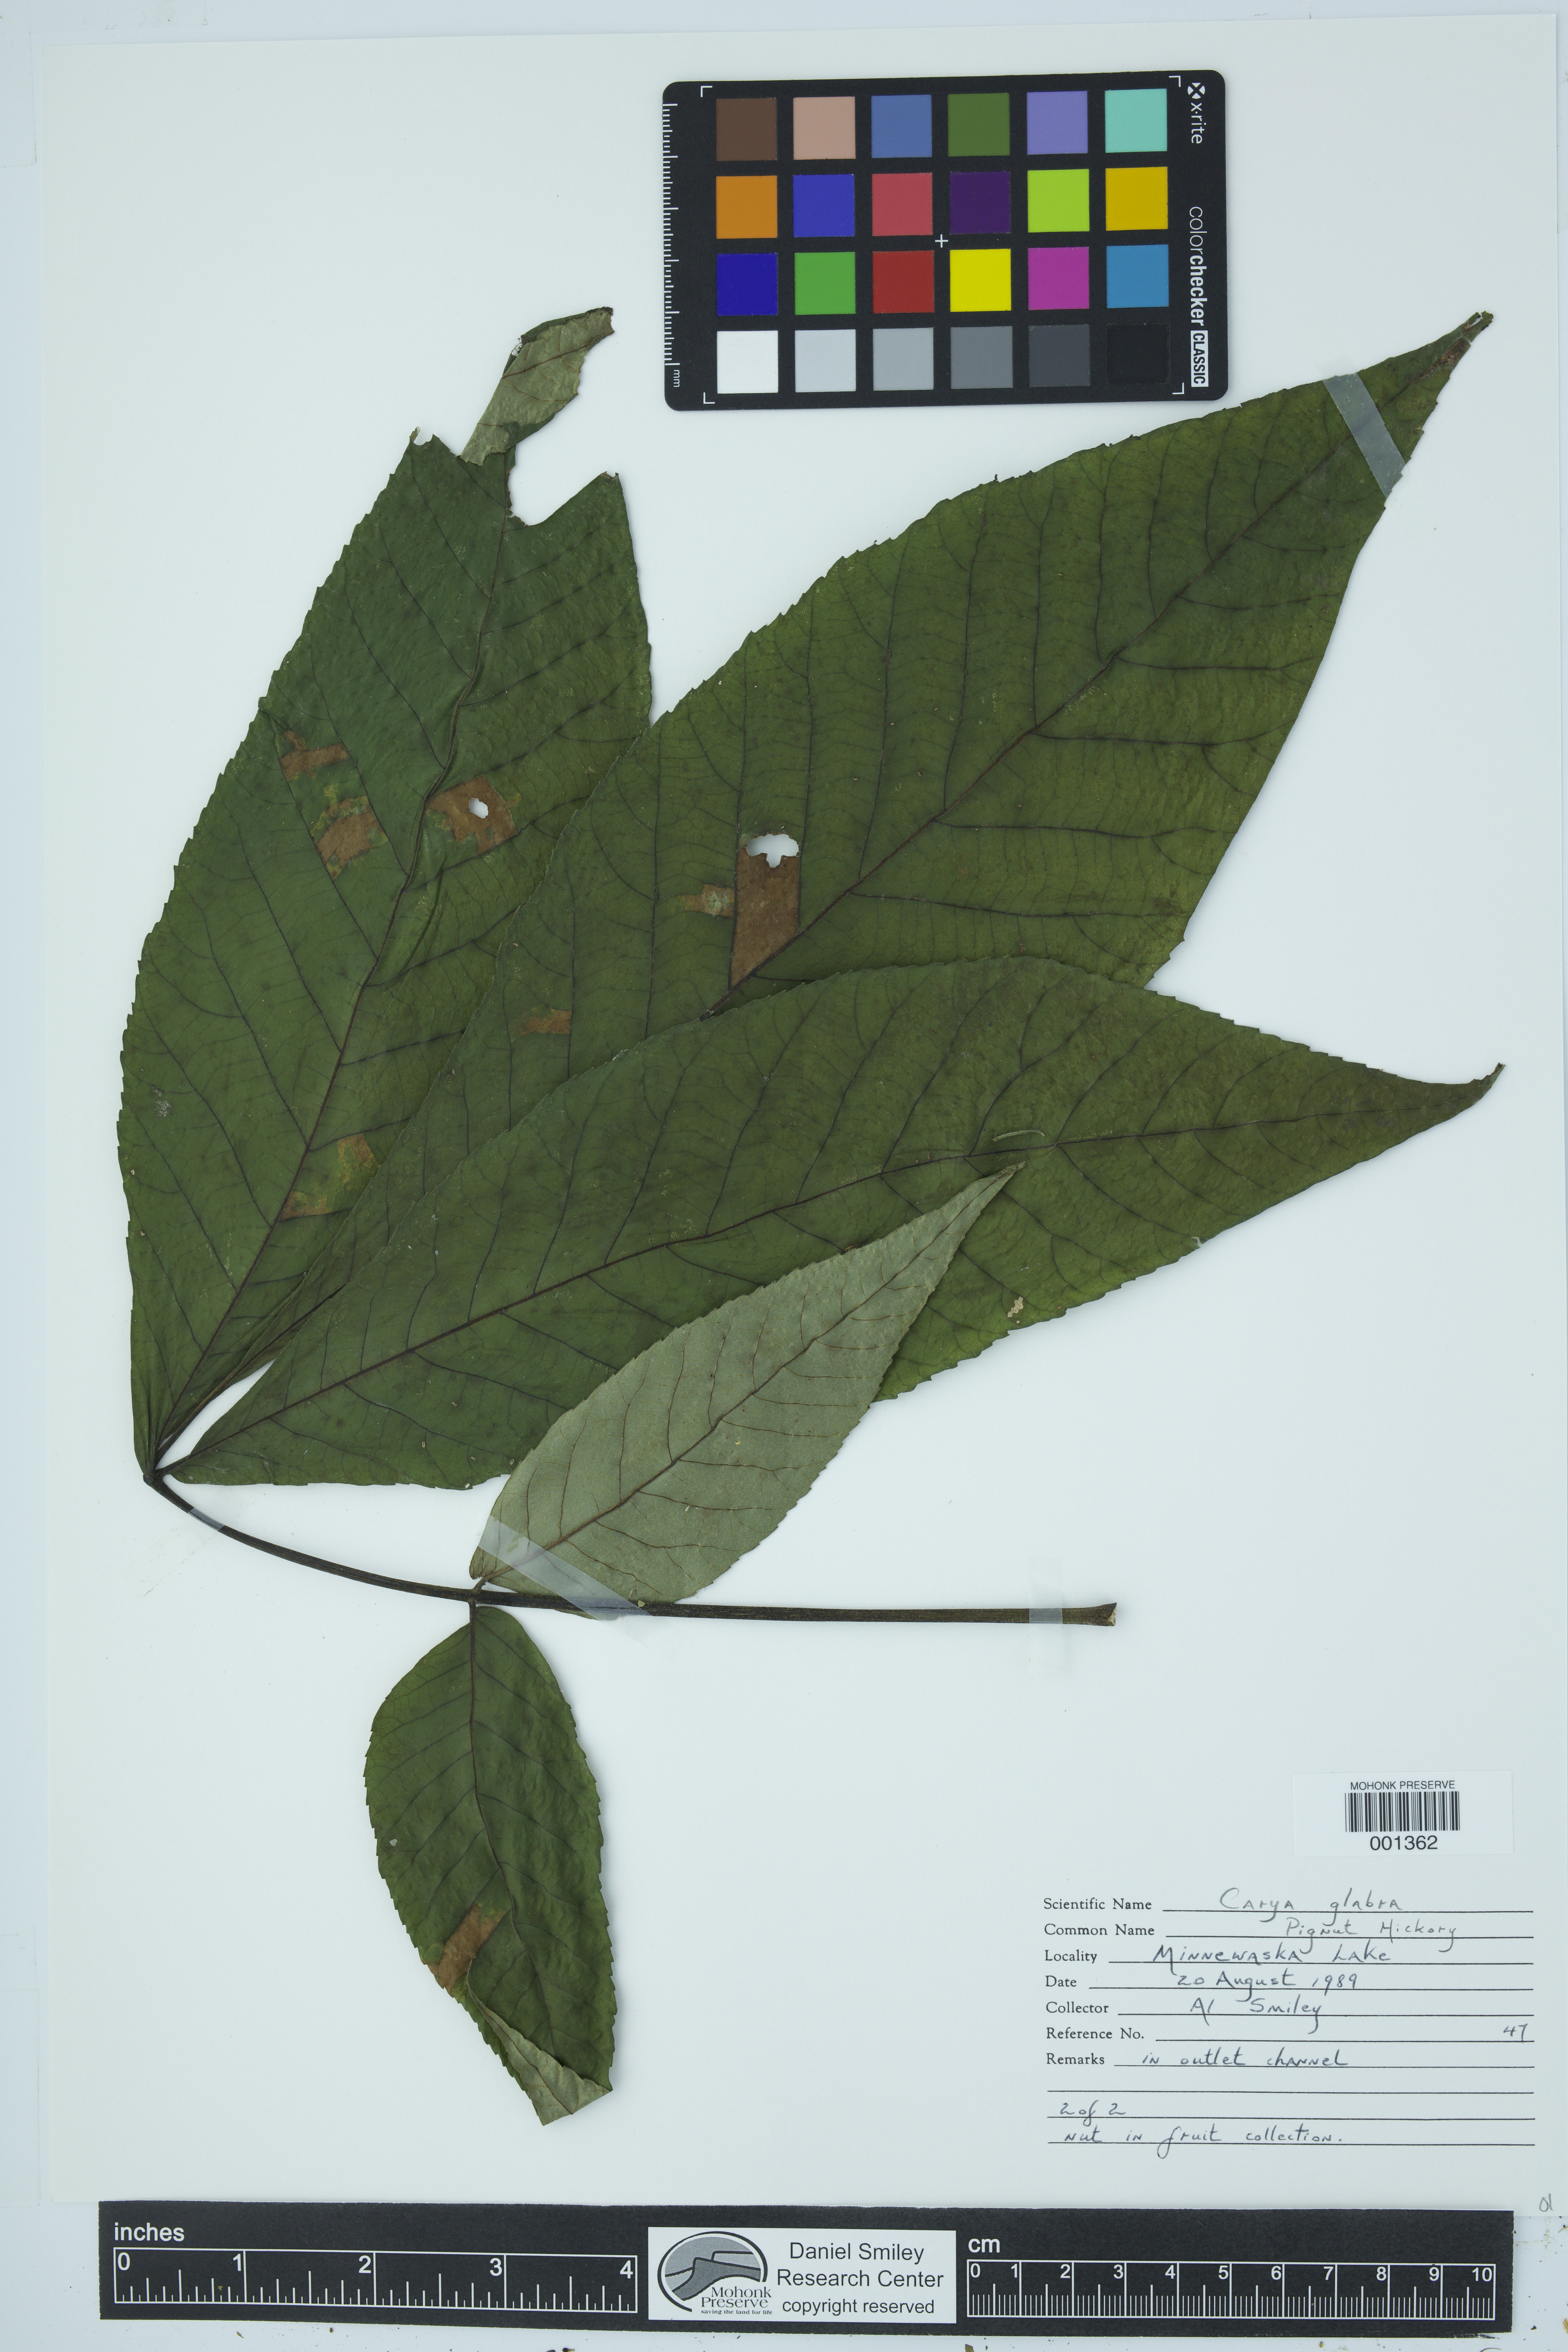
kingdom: Plantae
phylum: Tracheophyta
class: Magnoliopsida
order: Fagales
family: Juglandaceae
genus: Carya
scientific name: Carya glabra
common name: Pignut hickory
